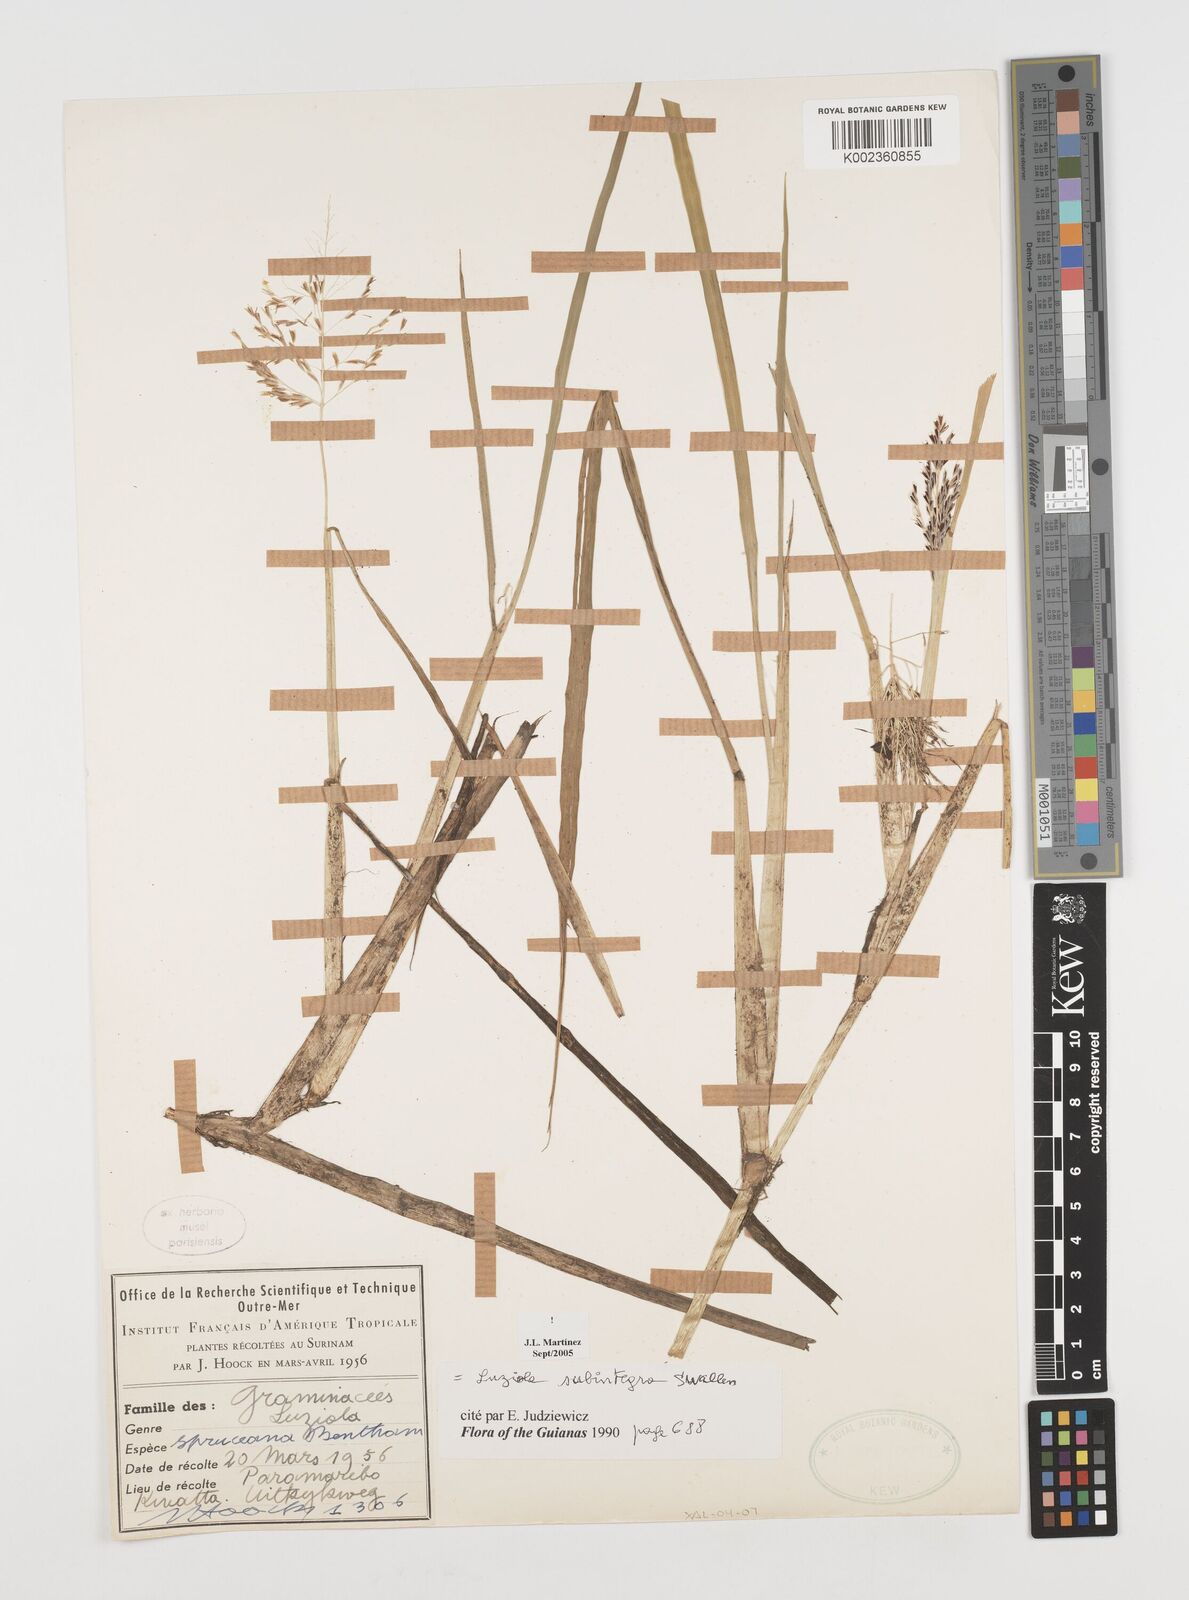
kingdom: Plantae
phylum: Tracheophyta
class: Liliopsida
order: Poales
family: Poaceae
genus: Luziola
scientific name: Luziola subintegra
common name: Large watergrass
